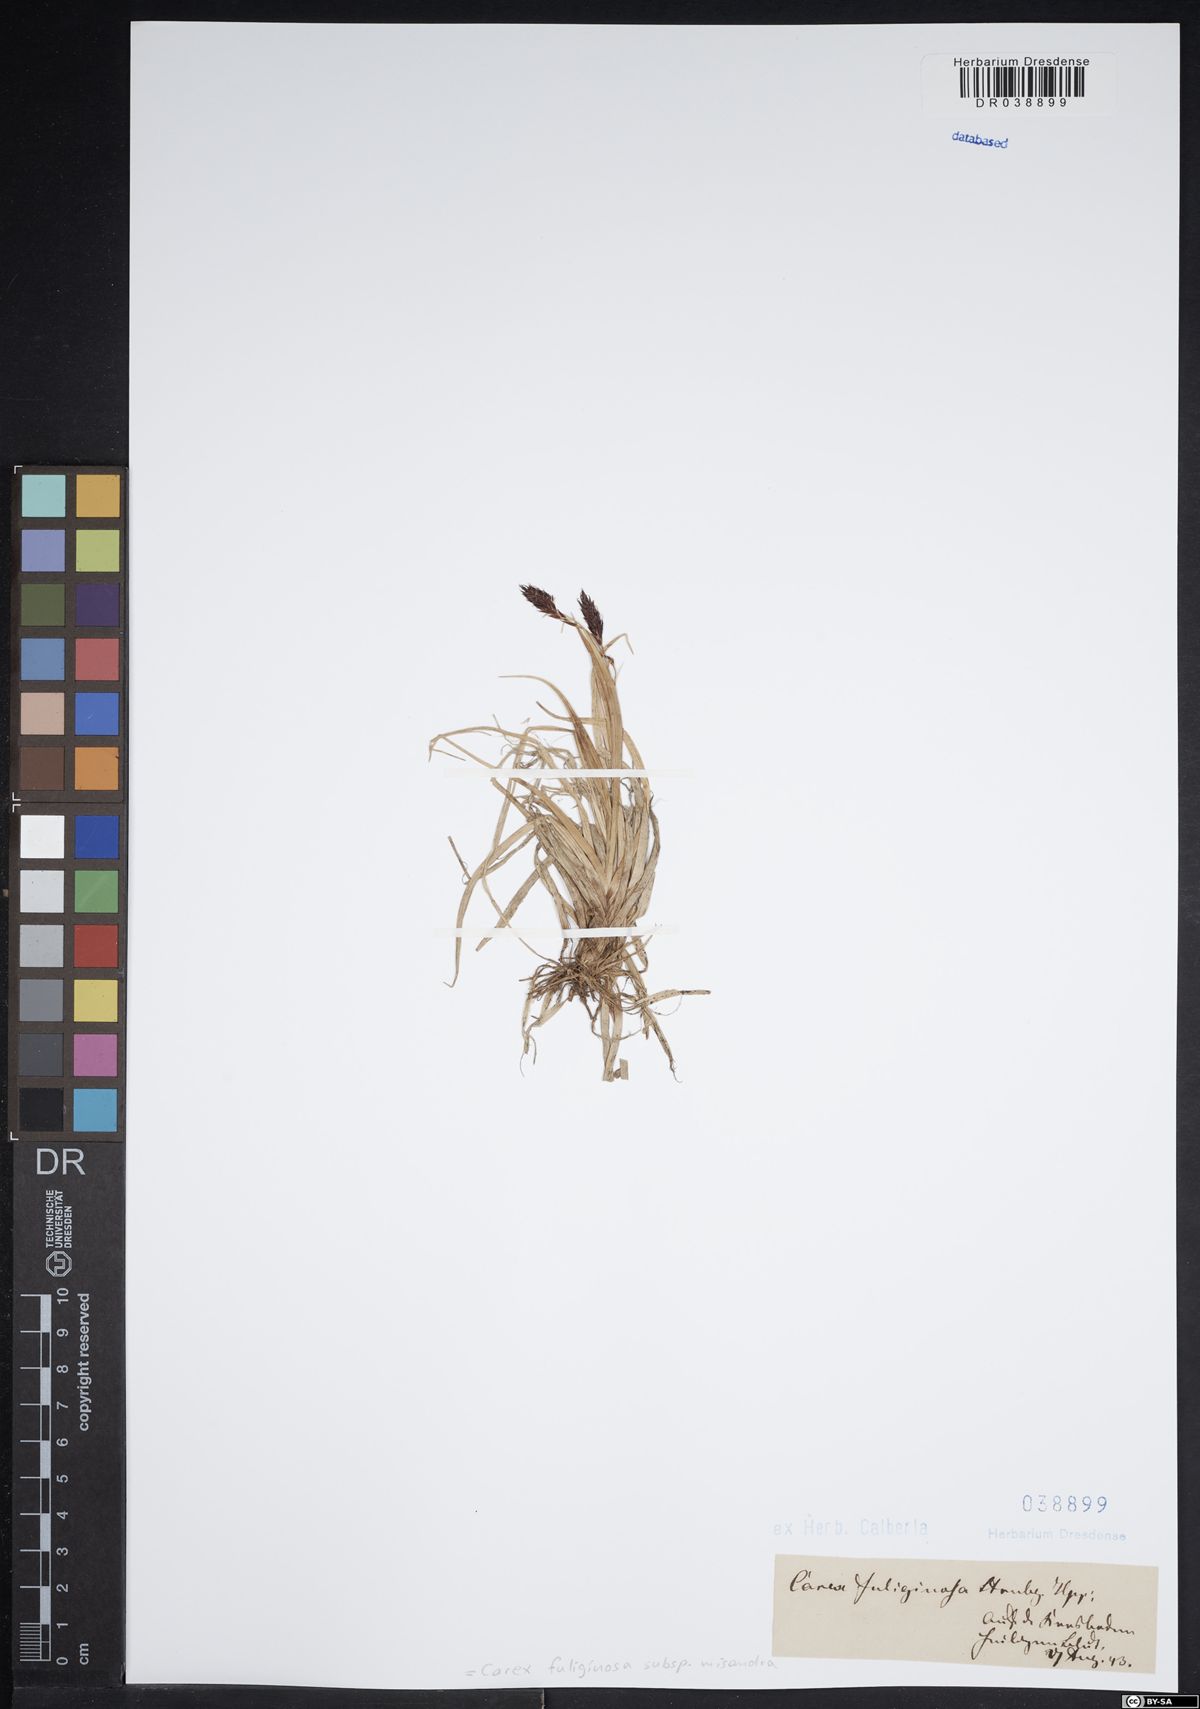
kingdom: Plantae
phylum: Tracheophyta
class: Liliopsida
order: Poales
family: Cyperaceae
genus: Carex
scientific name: Carex fuliginosa
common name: Few-flowered sedge
